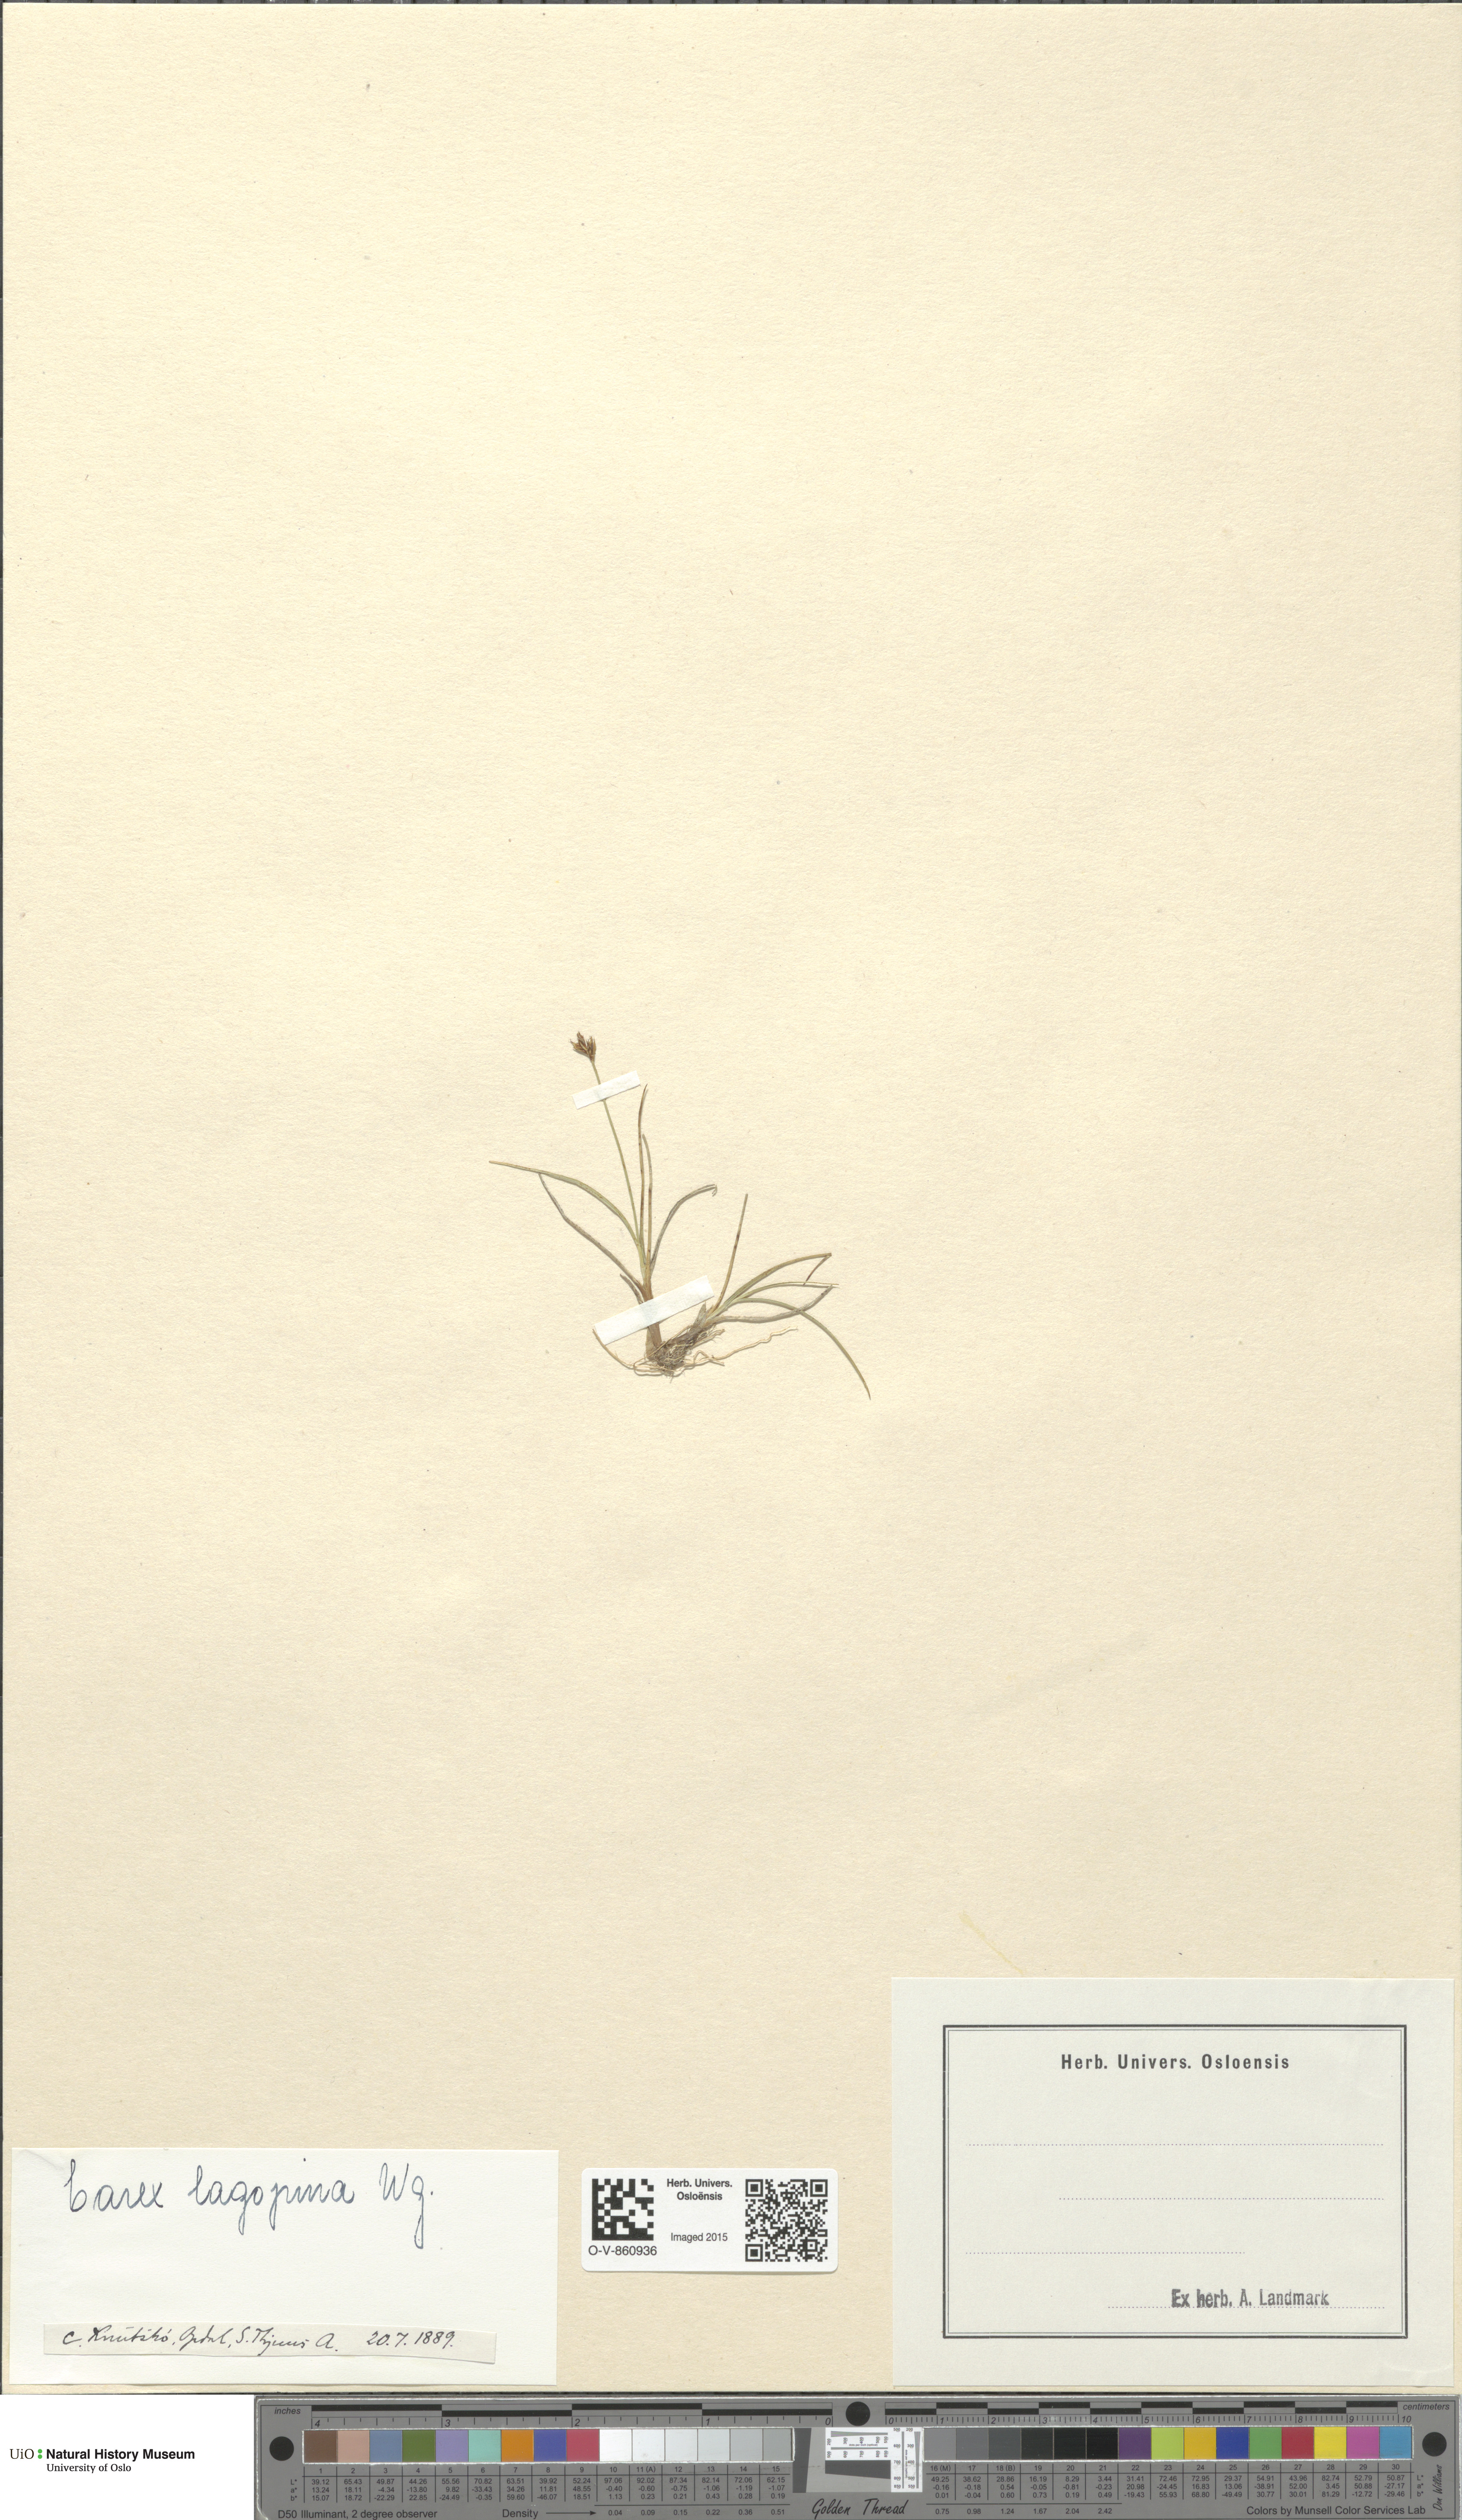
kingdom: Plantae
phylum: Tracheophyta
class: Liliopsida
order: Poales
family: Cyperaceae
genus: Carex
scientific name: Carex lachenalii
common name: Hare's-foot sedge
